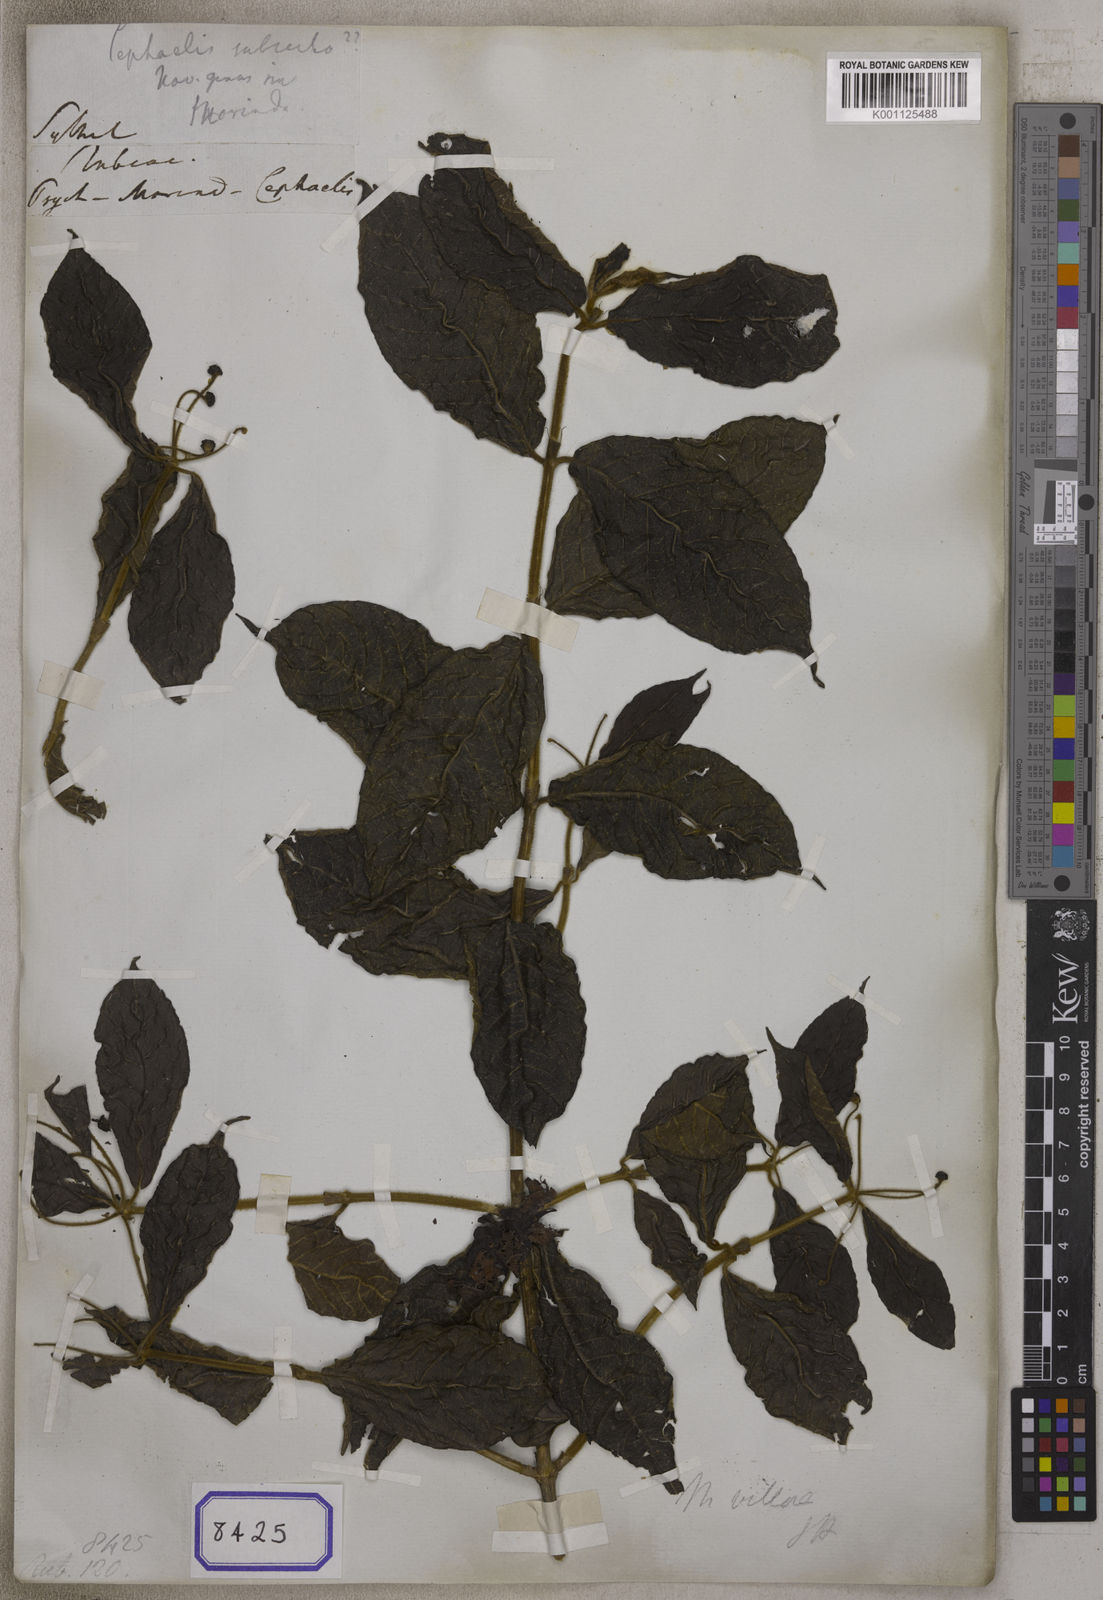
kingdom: Plantae
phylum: Tracheophyta
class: Magnoliopsida
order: Gentianales
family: Rubiaceae
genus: Morinda
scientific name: Morinda
